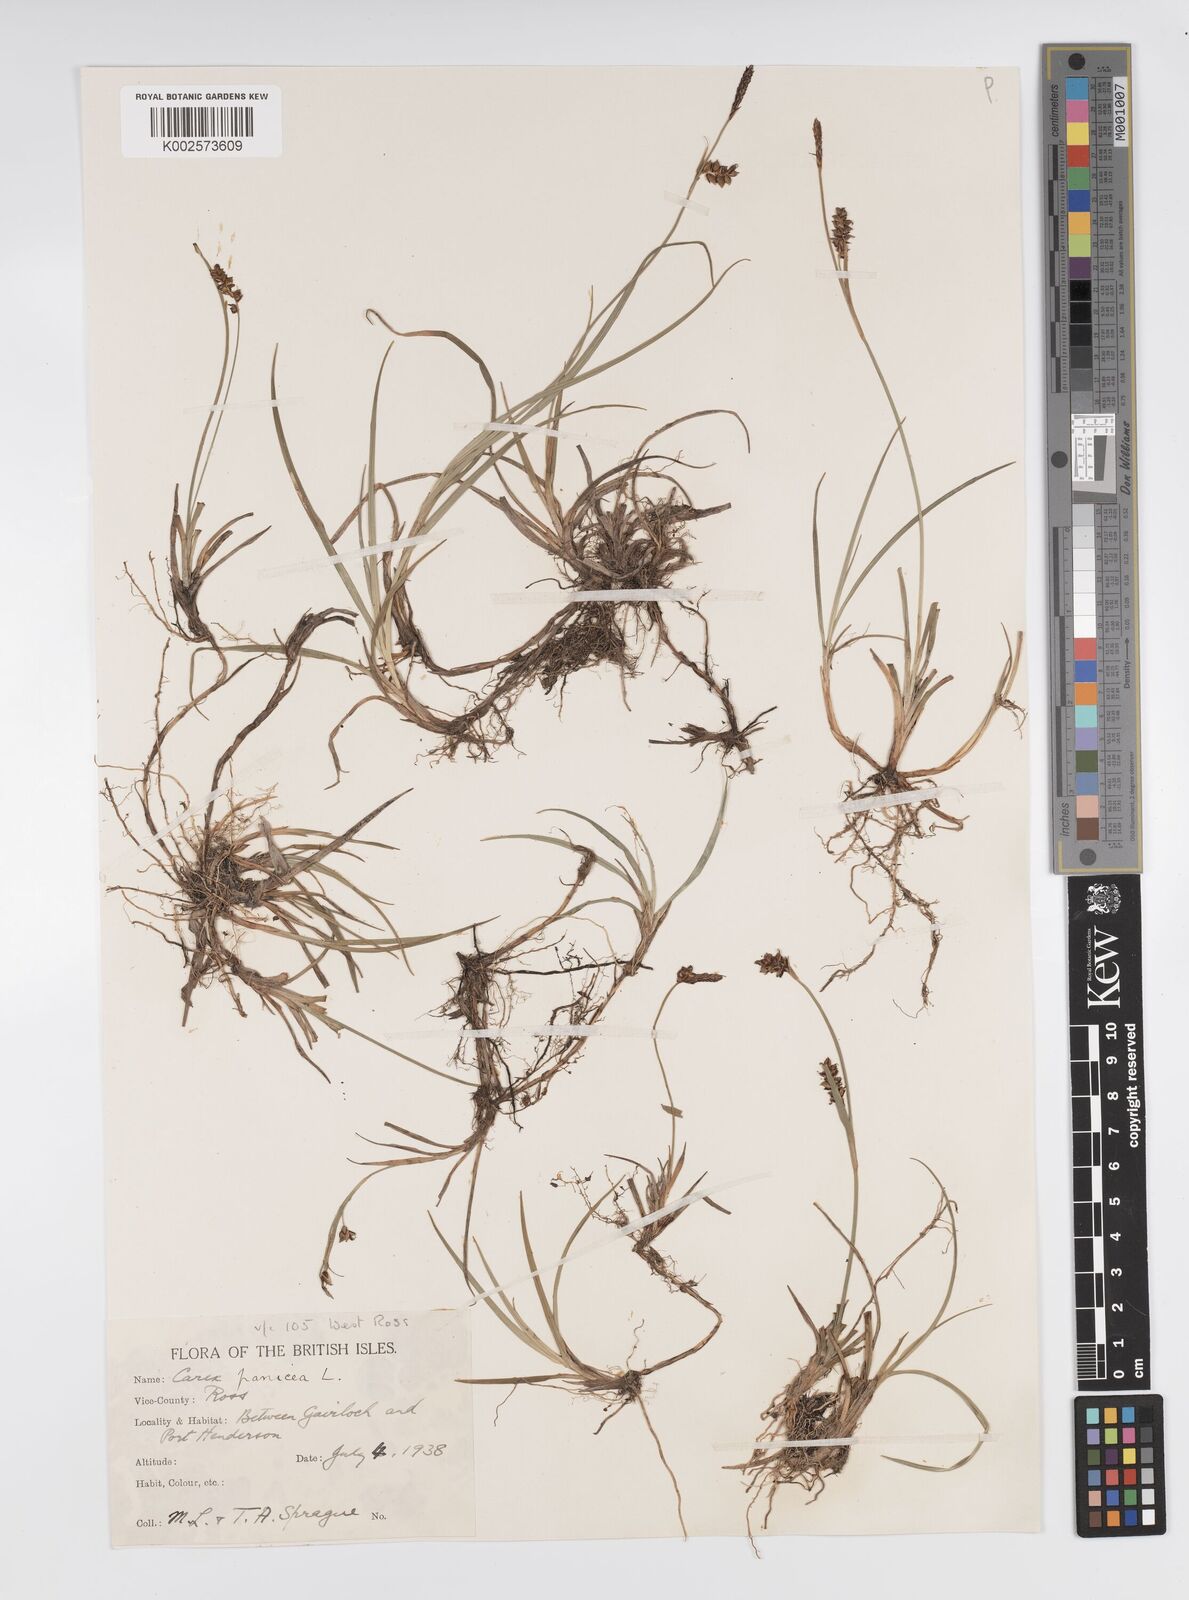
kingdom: Plantae
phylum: Tracheophyta
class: Liliopsida
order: Poales
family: Cyperaceae
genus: Carex
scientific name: Carex panicea
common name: Carnation sedge
